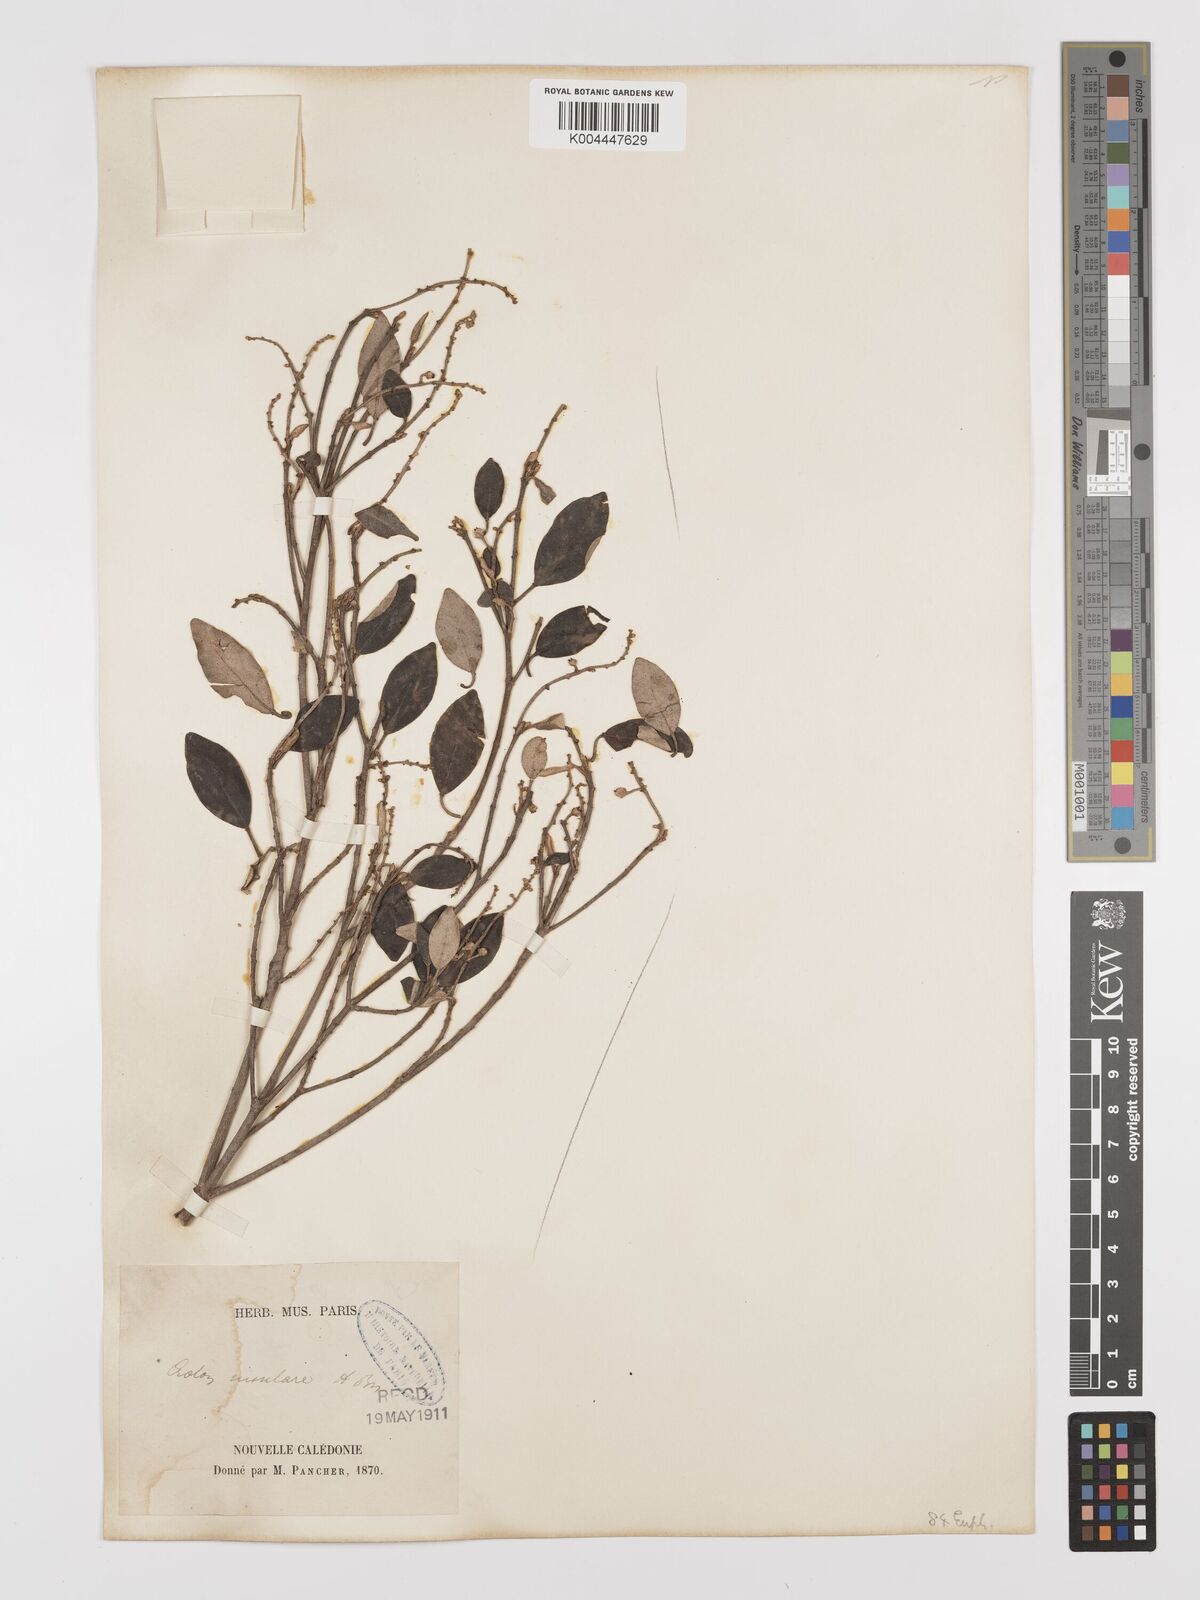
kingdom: Plantae
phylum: Tracheophyta
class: Magnoliopsida
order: Malpighiales
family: Euphorbiaceae
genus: Croton
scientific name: Croton insularis
